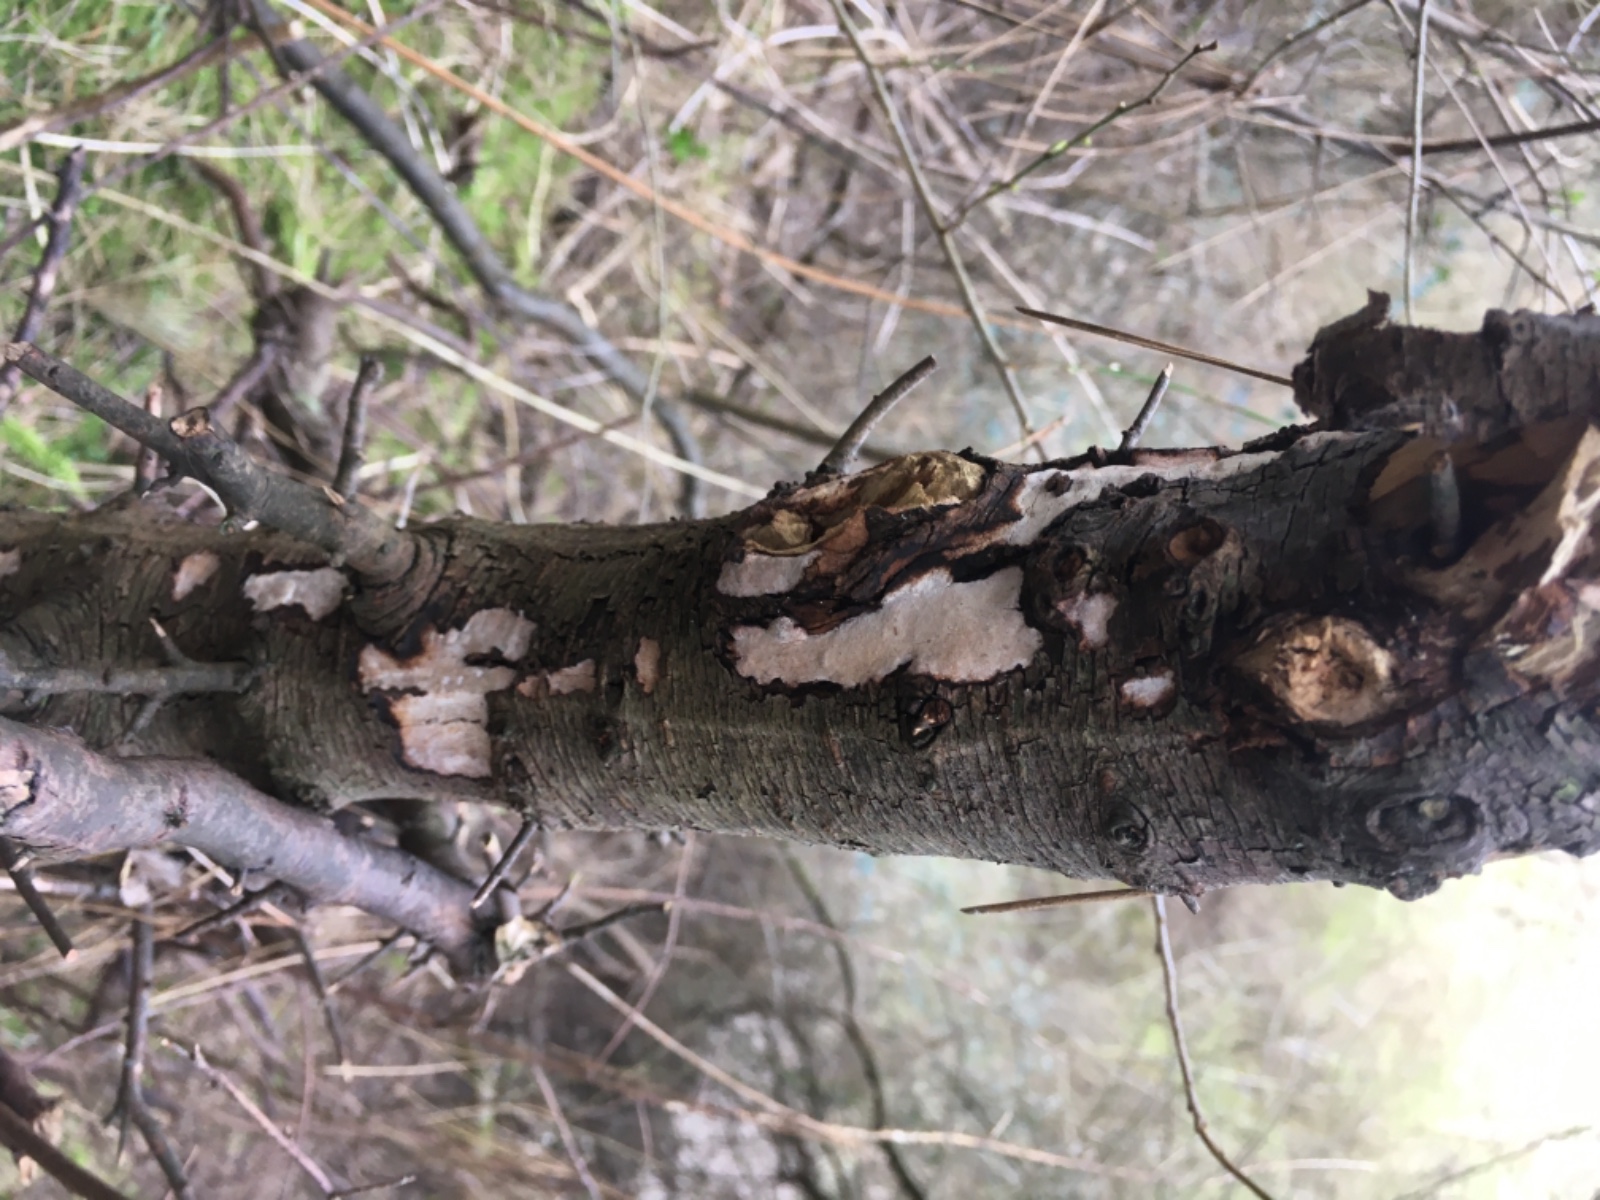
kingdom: Fungi
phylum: Basidiomycota
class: Agaricomycetes
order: Corticiales
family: Vuilleminiaceae
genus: Vuilleminia
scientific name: Vuilleminia cystidiata
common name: tjørne-barksprænger
